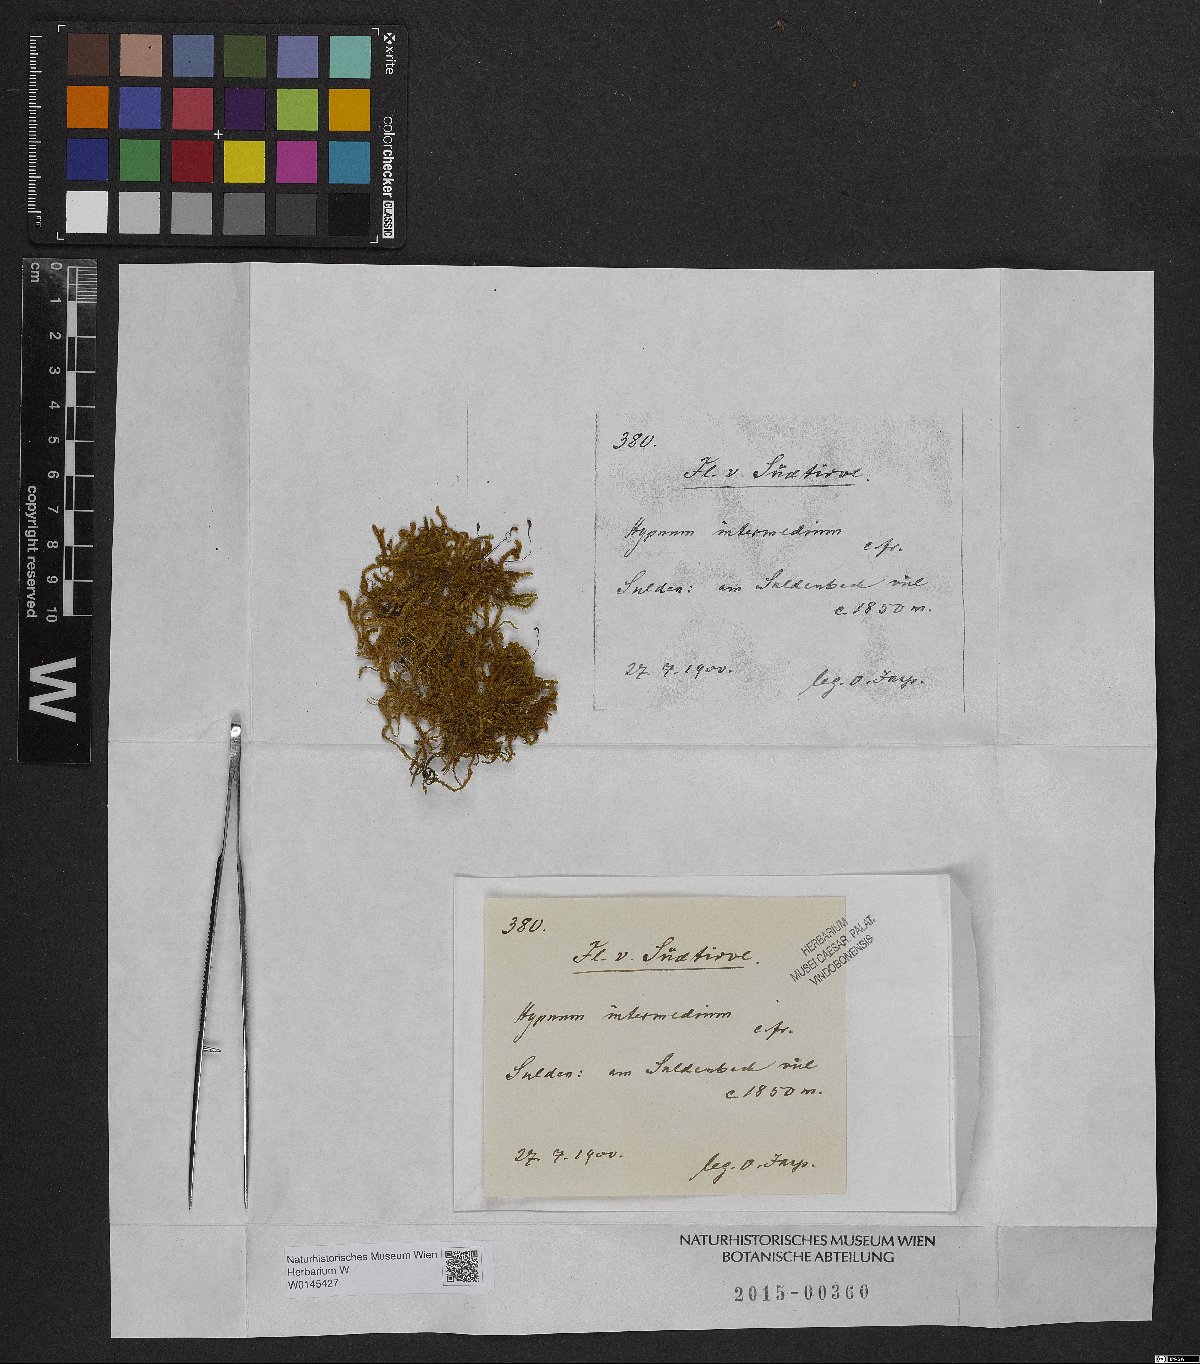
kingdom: Plantae
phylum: Bryophyta
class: Bryopsida
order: Hypnales
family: Thuidiaceae
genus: Thuidium
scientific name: Thuidium arzobispoae
